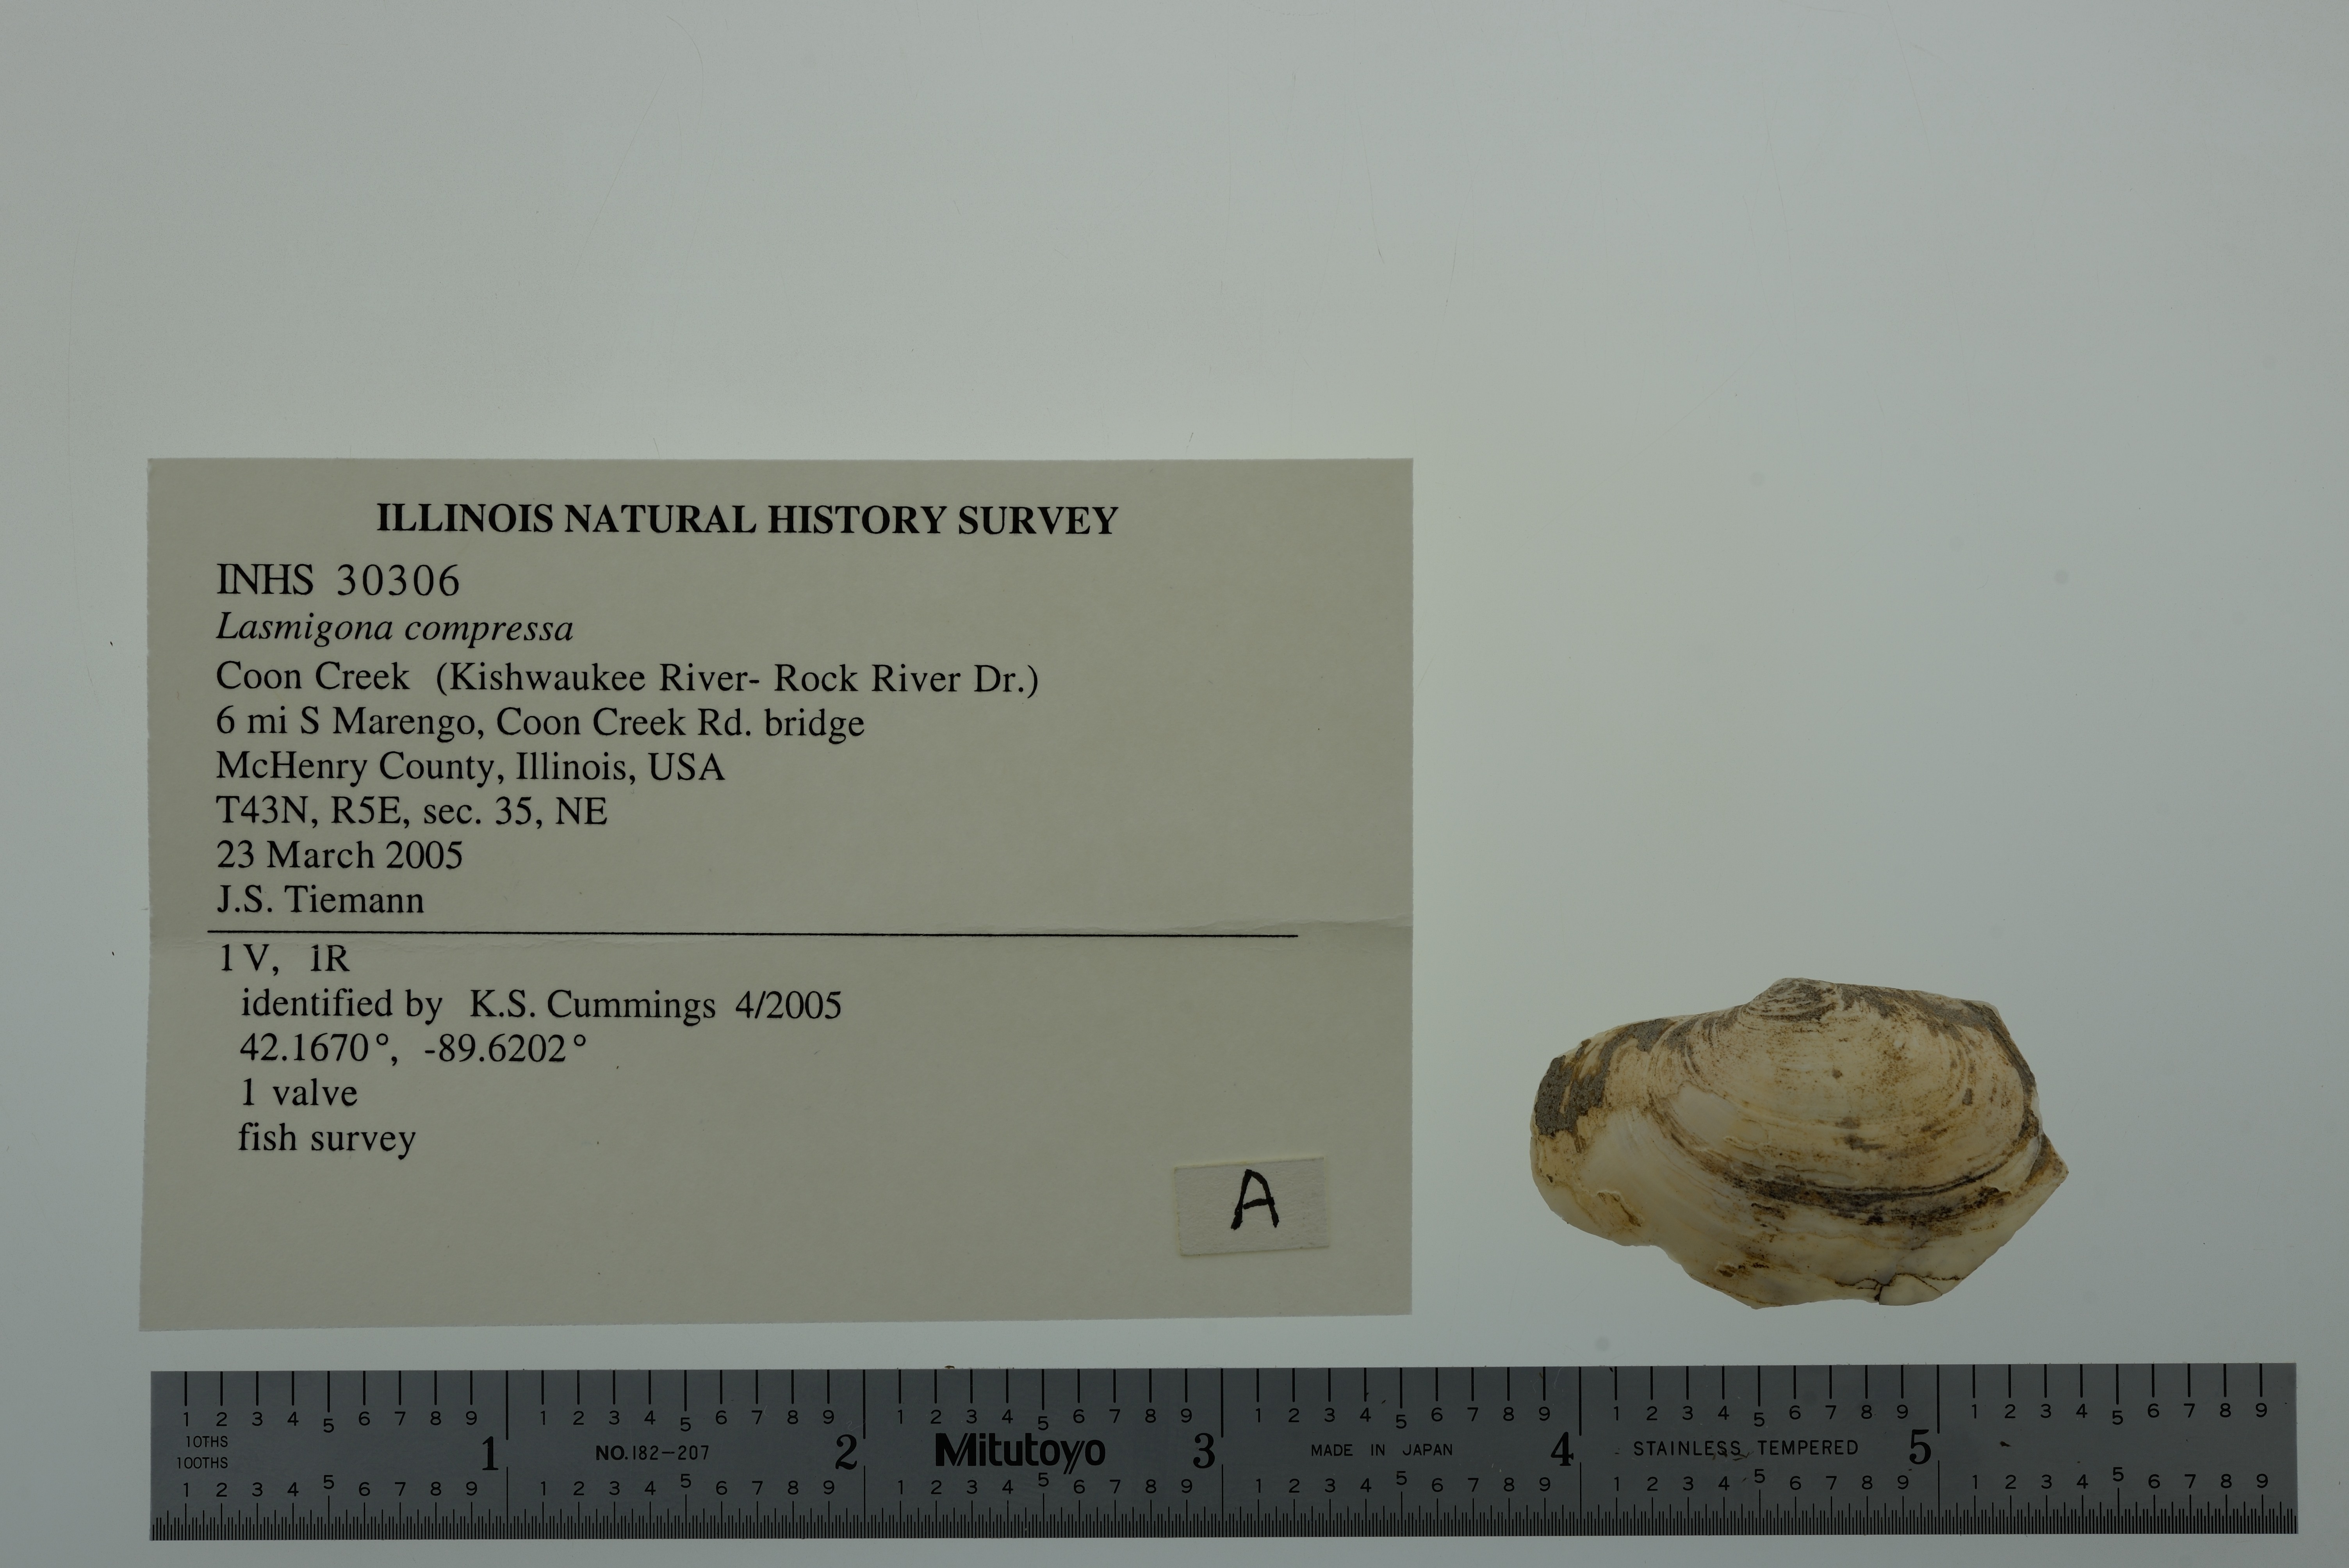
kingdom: Animalia
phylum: Mollusca
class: Bivalvia
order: Unionida
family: Unionidae
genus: Lasmigona
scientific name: Lasmigona compressa
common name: Creek heelsplitter
